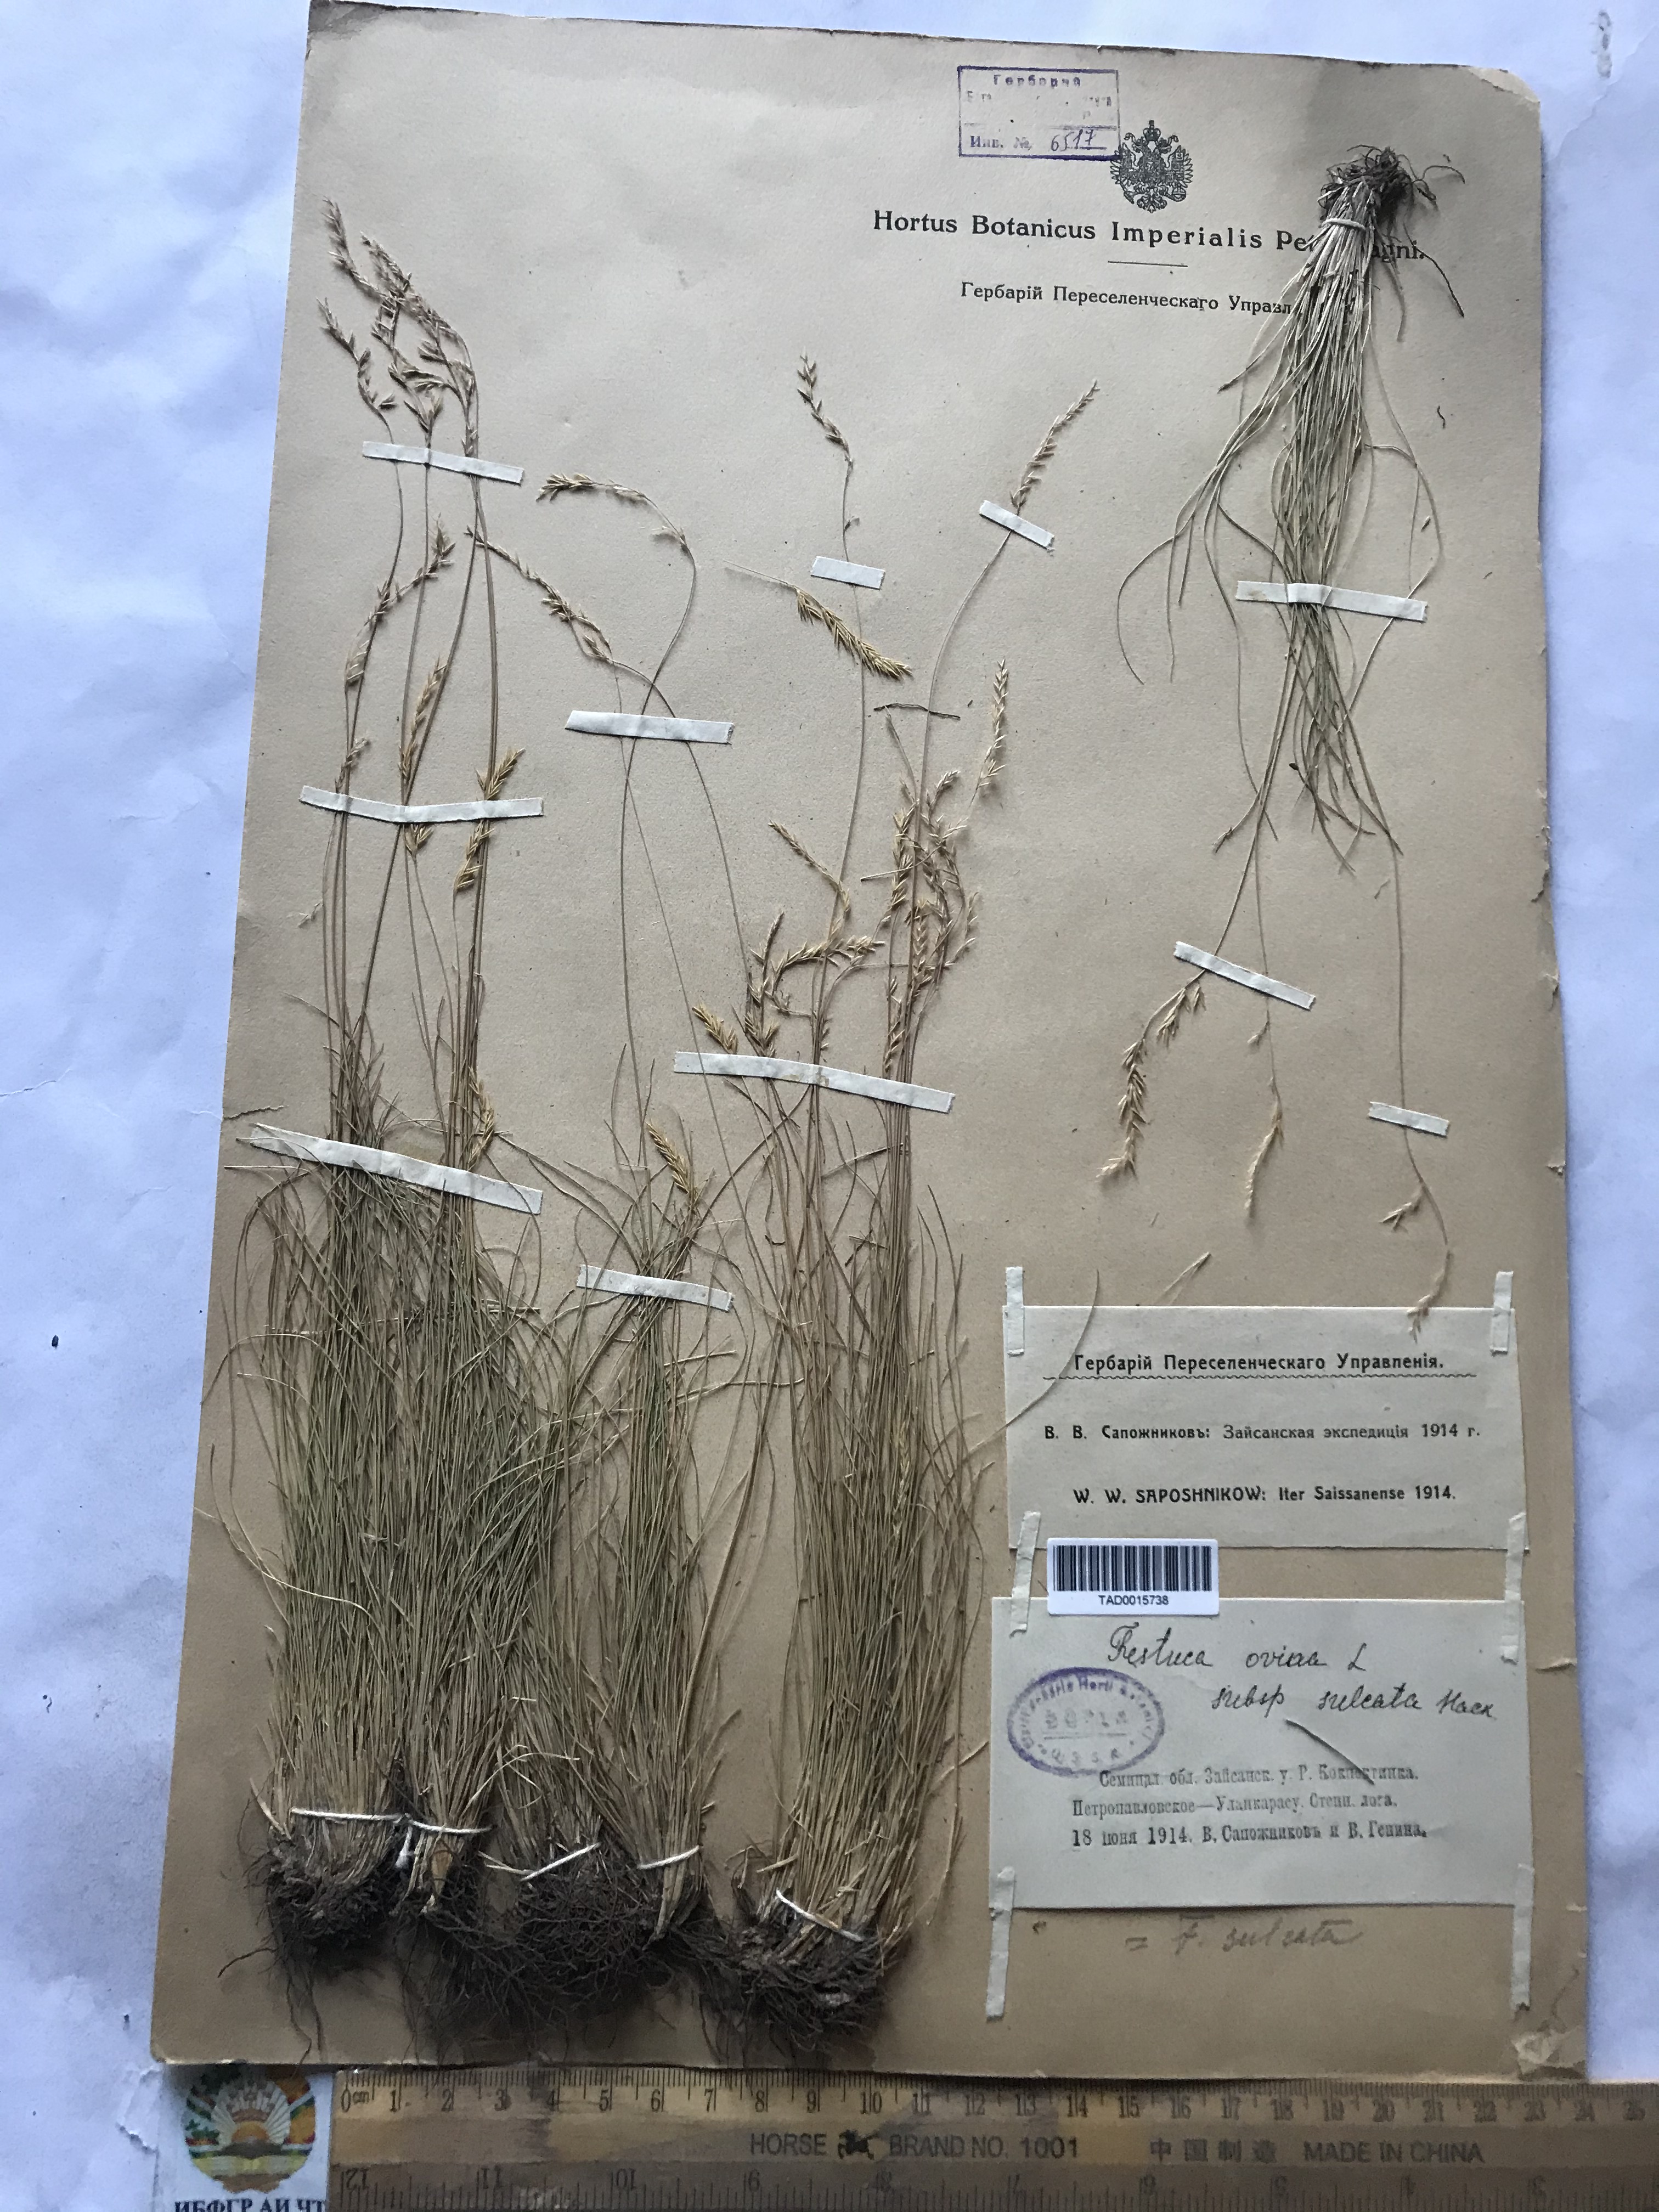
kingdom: Plantae
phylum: Tracheophyta
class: Liliopsida
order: Poales
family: Poaceae
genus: Festuca
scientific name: Festuca ovina
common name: Sheep fescue
